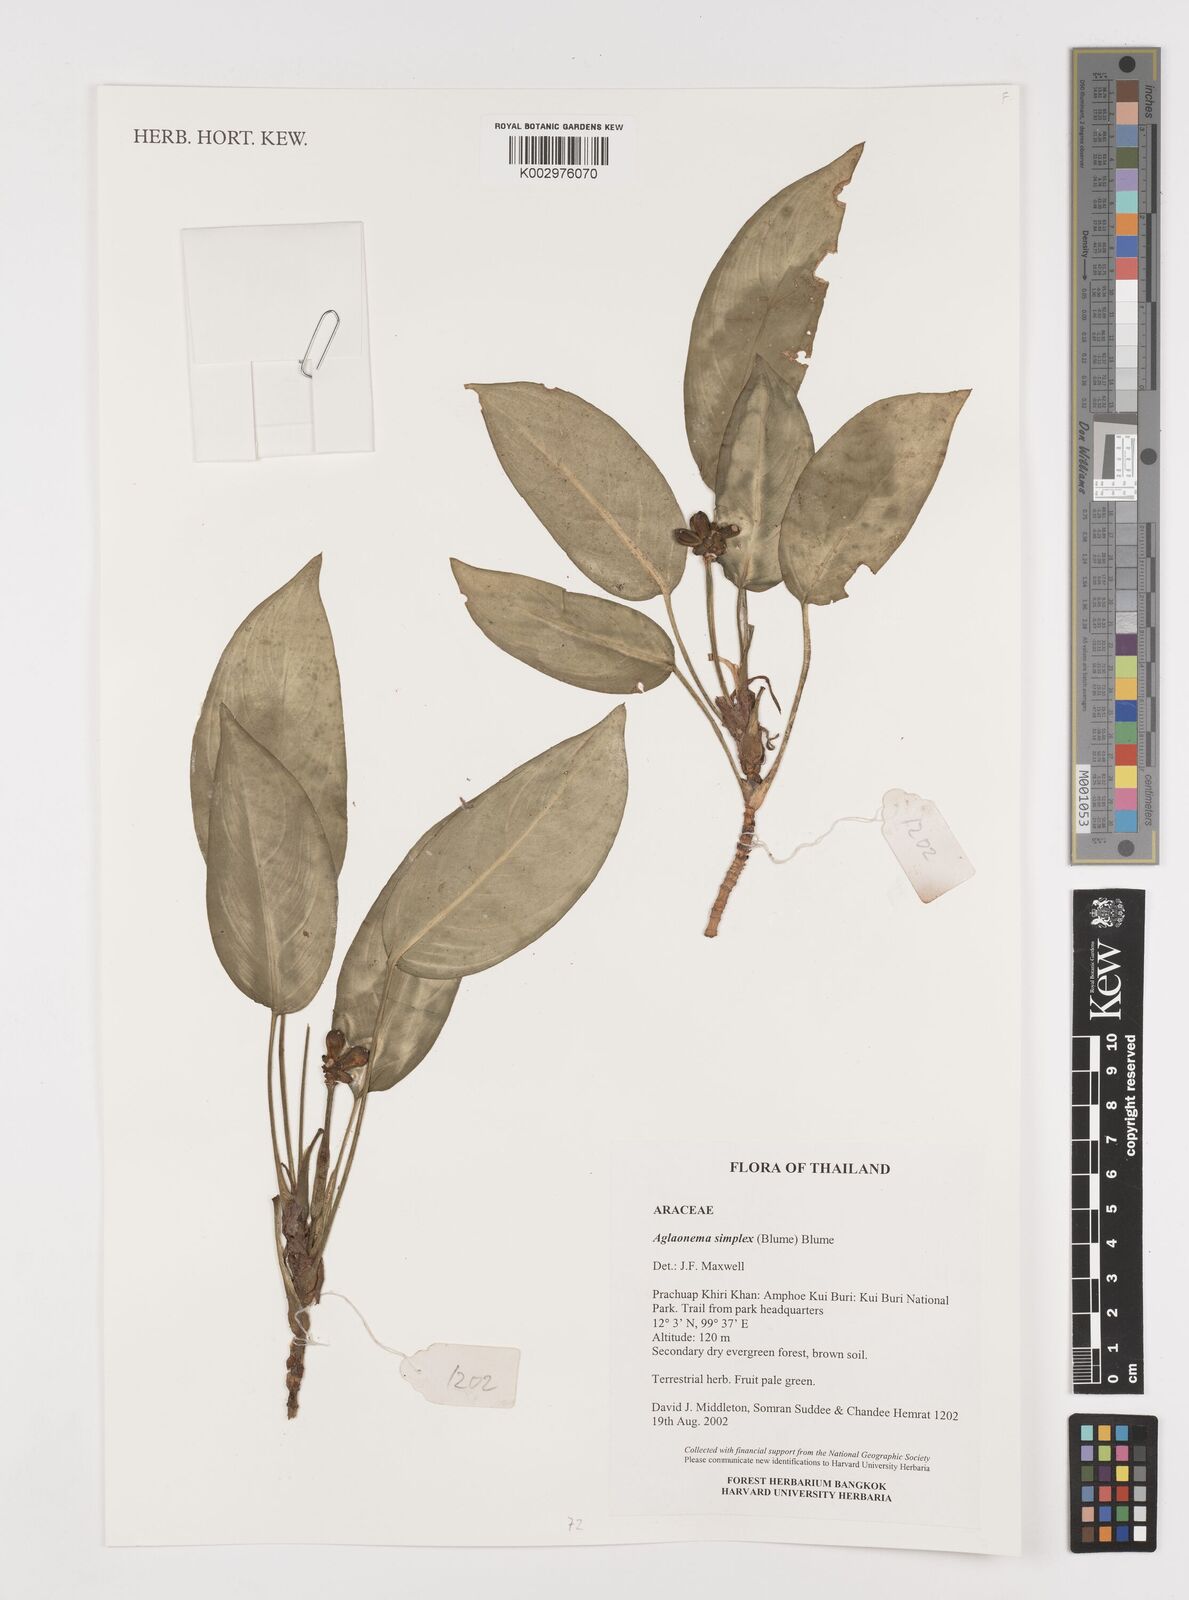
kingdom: Plantae
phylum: Tracheophyta
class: Liliopsida
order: Alismatales
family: Araceae
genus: Aglaonema
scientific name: Aglaonema simplex
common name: Malayan-sword
